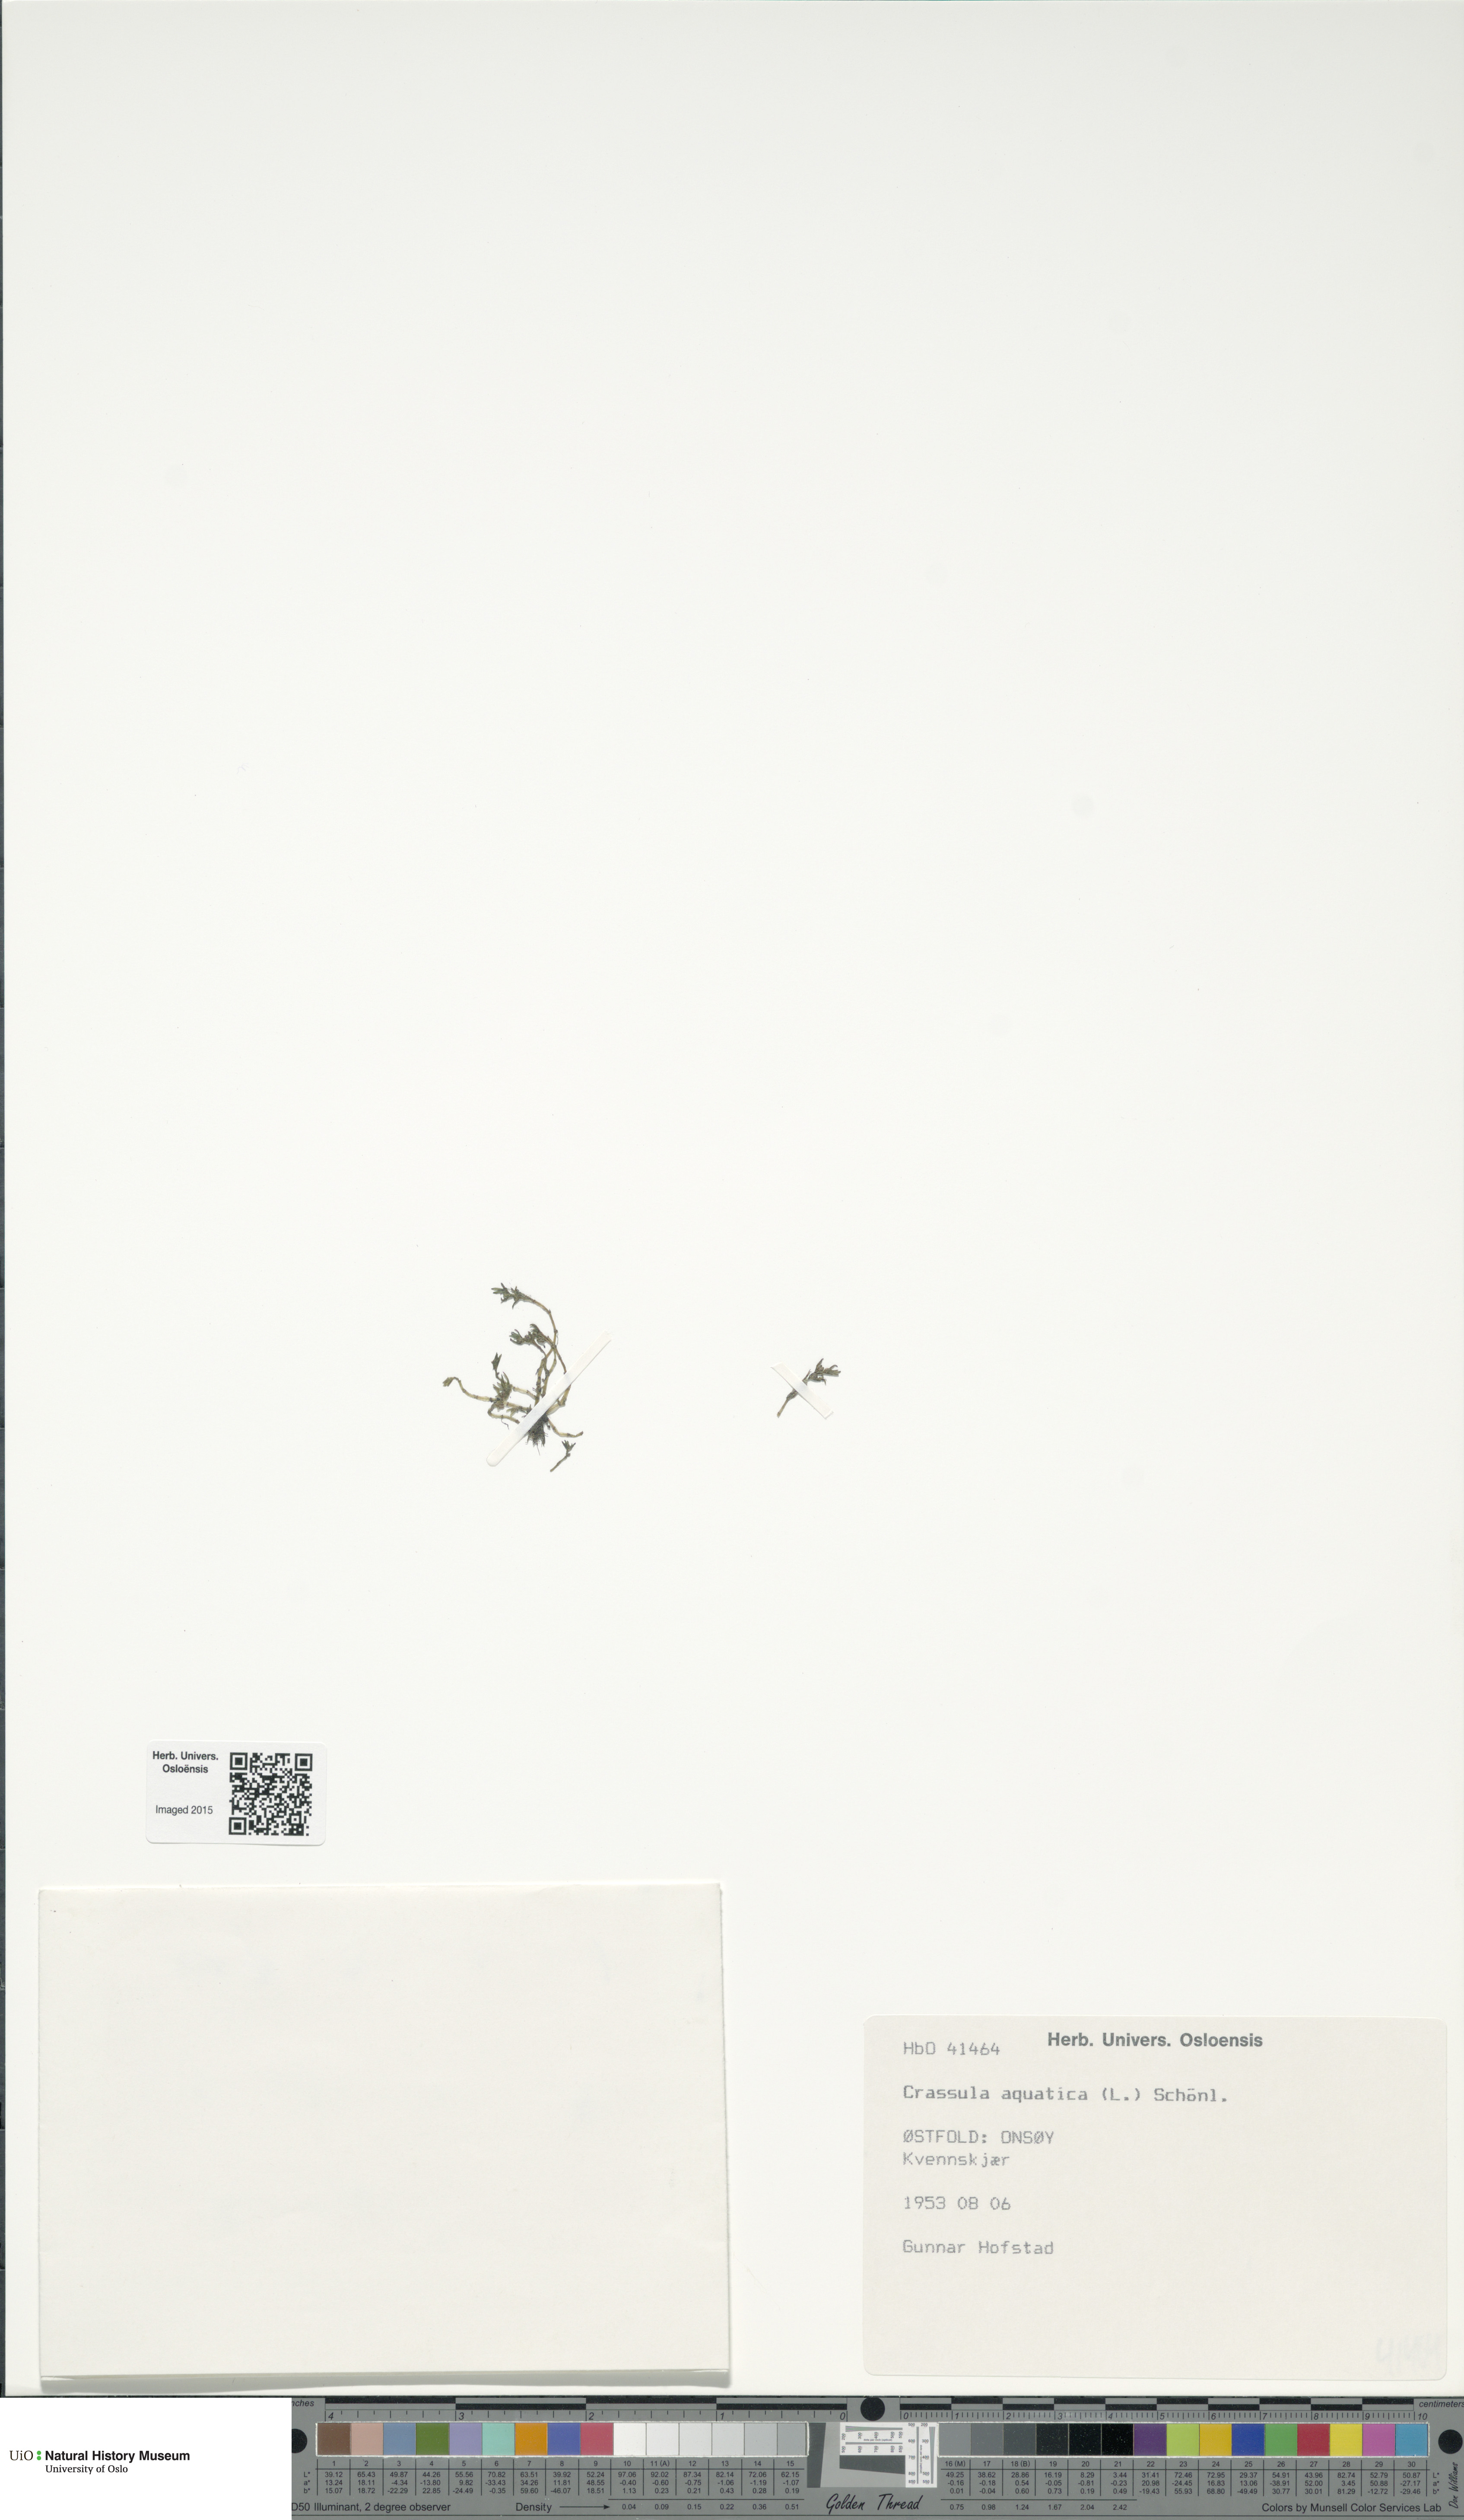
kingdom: Plantae
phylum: Tracheophyta
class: Magnoliopsida
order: Saxifragales
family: Crassulaceae
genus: Crassula
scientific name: Crassula aquatica
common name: Pigmyweed
